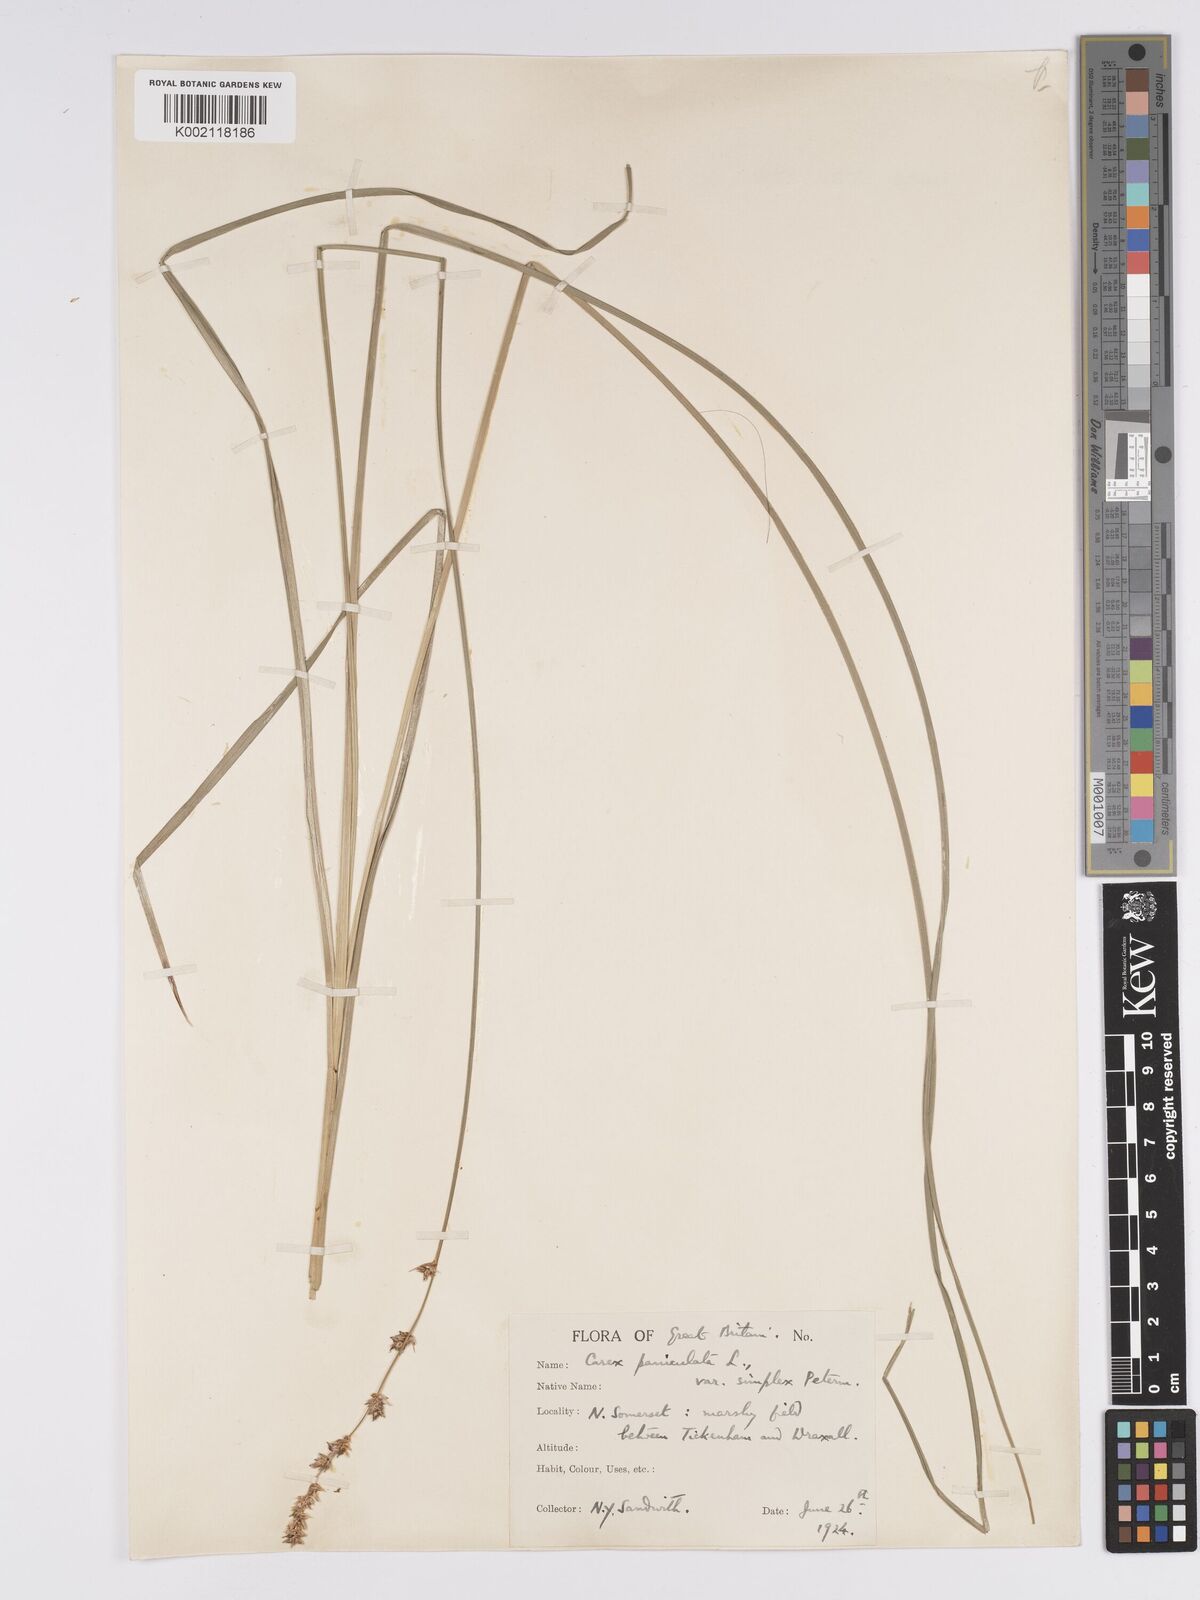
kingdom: Plantae
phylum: Tracheophyta
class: Liliopsida
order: Poales
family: Cyperaceae
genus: Carex
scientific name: Carex paniculata
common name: Greater tussock-sedge
